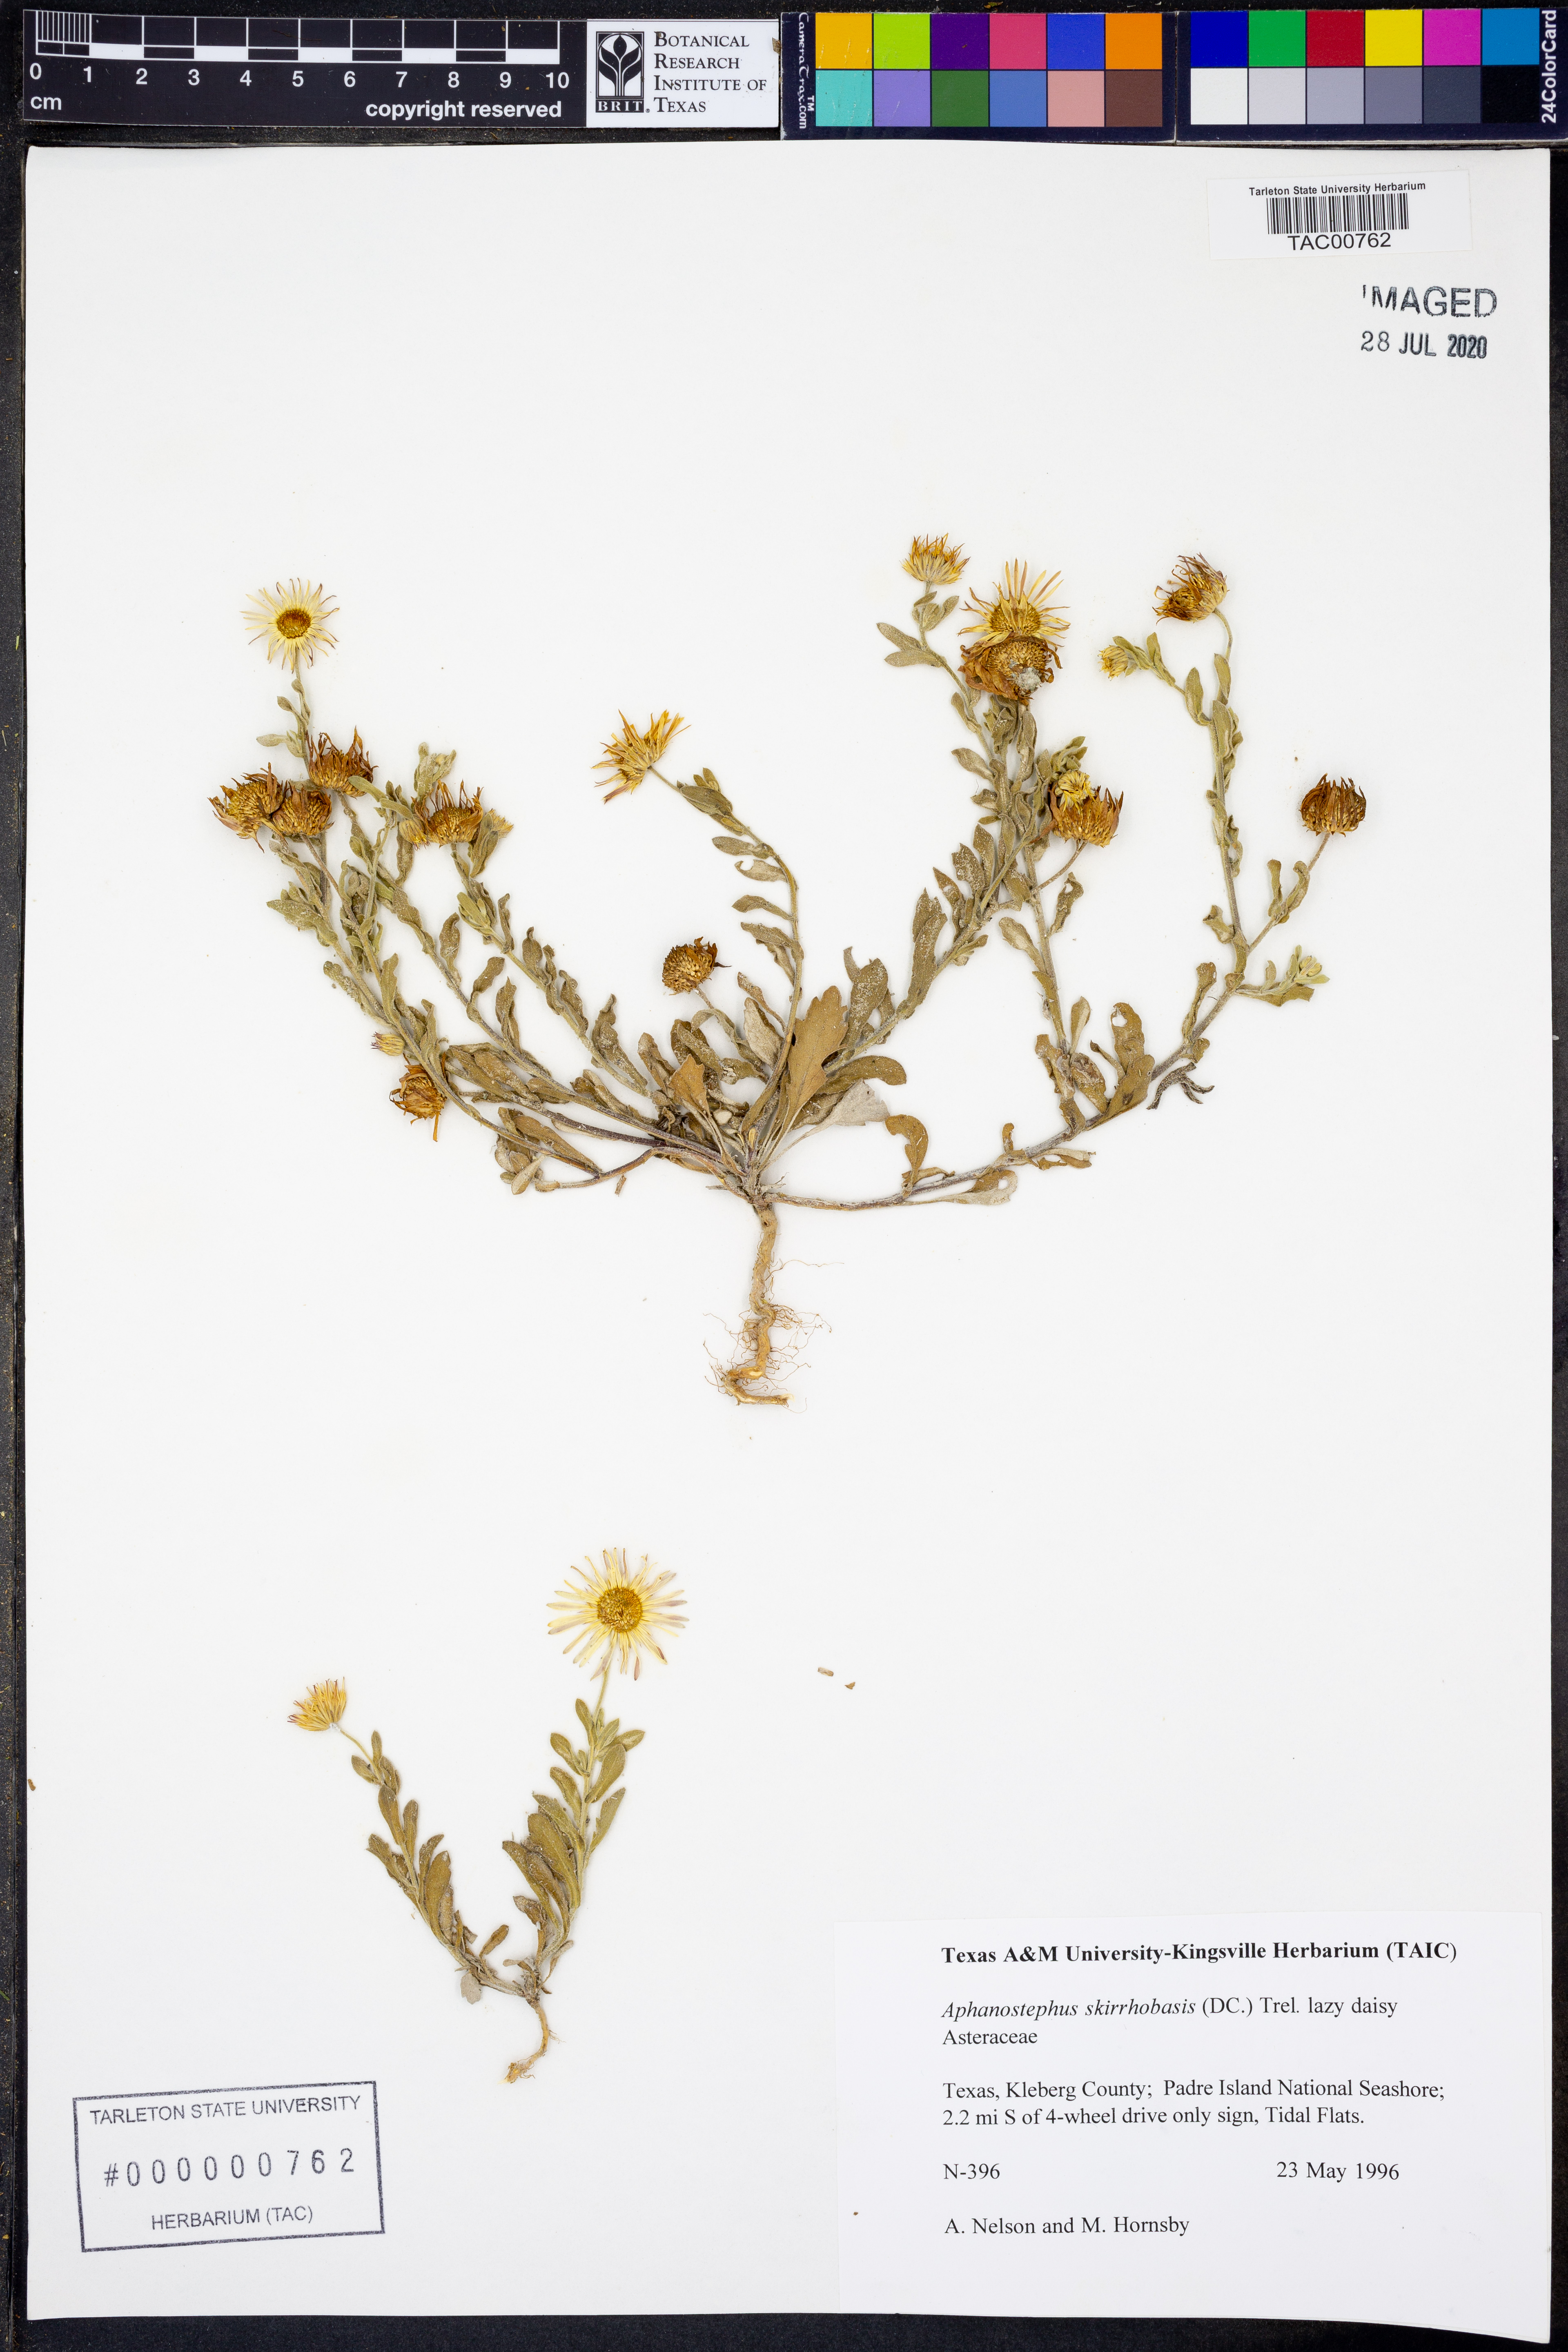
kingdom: Plantae
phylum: Tracheophyta
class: Magnoliopsida
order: Asterales
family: Asteraceae
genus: Aphanostephus
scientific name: Aphanostephus skirrhobasis
